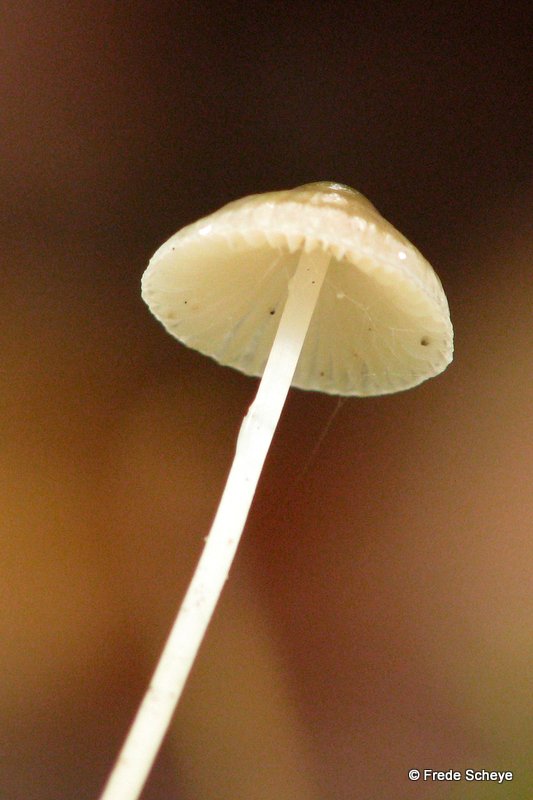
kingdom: Fungi
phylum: Basidiomycota
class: Agaricomycetes
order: Agaricales
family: Mycenaceae
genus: Mycena
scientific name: Mycena vitilis
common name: blankstokket huesvamp
